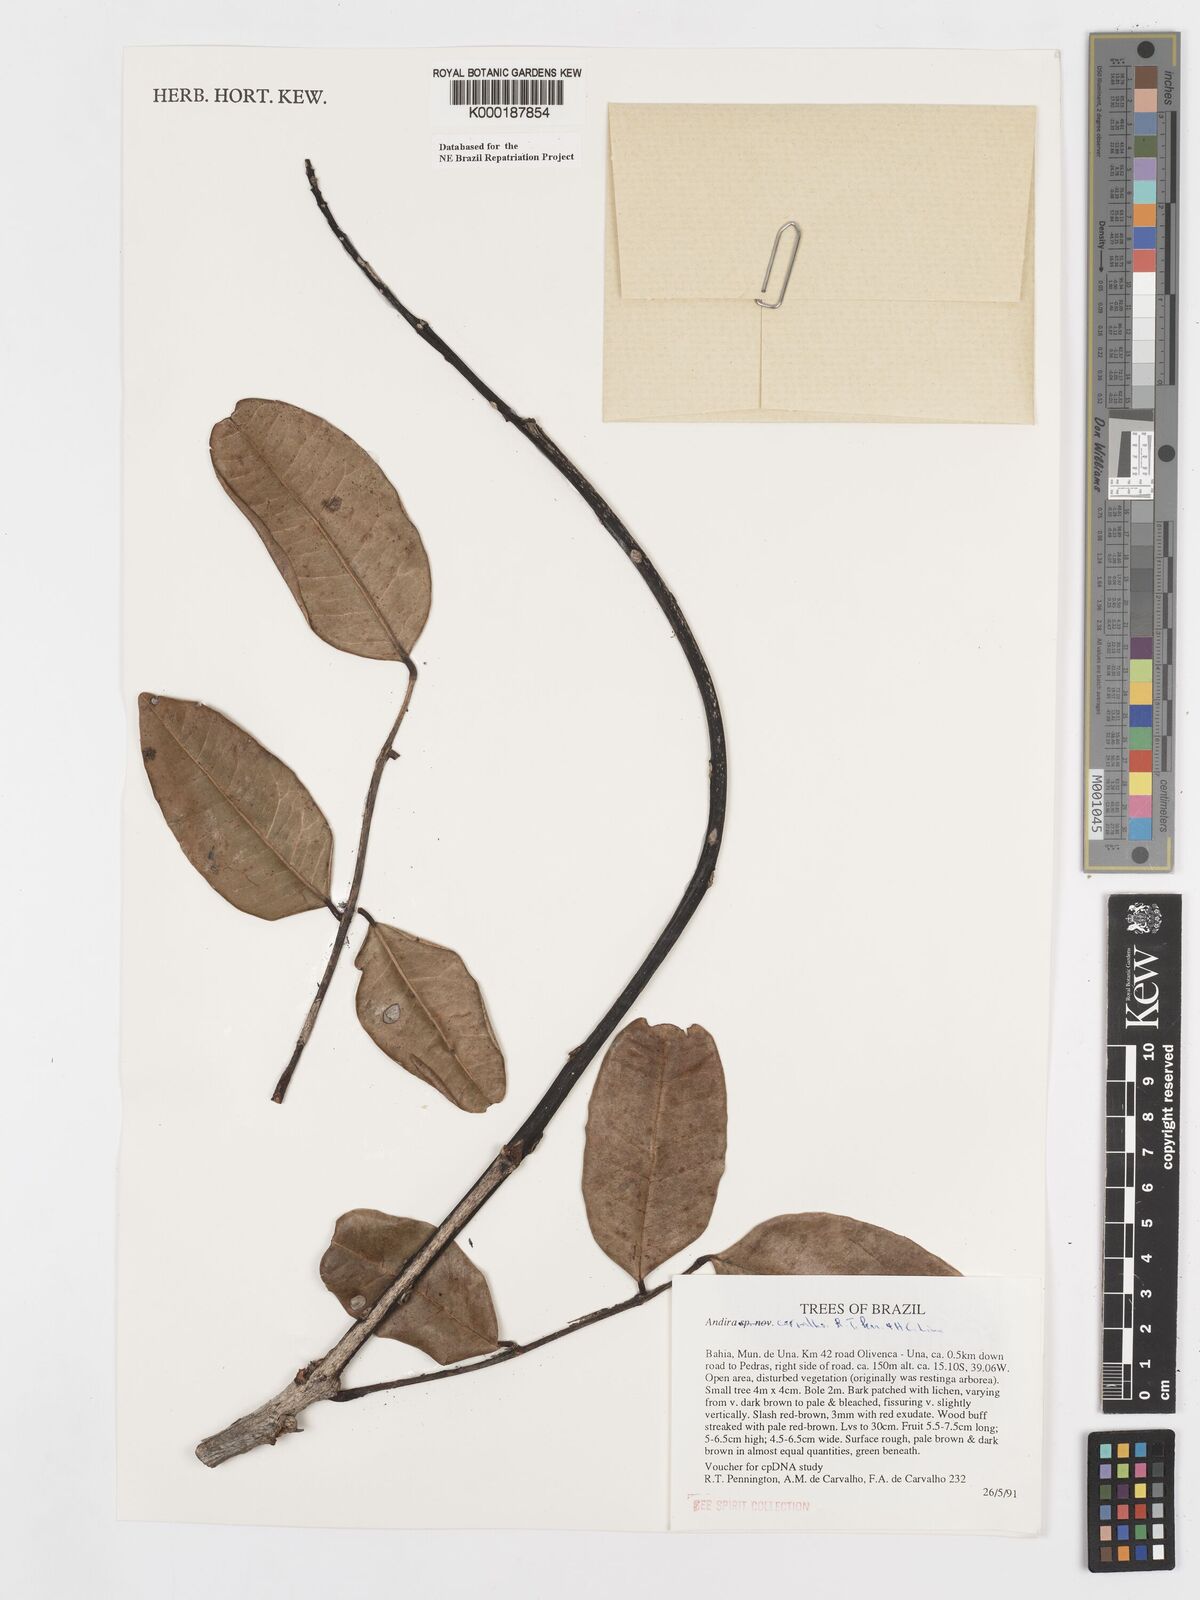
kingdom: Plantae
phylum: Tracheophyta
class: Magnoliopsida
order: Fabales
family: Fabaceae
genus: Andira
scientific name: Andira carvalhoi
